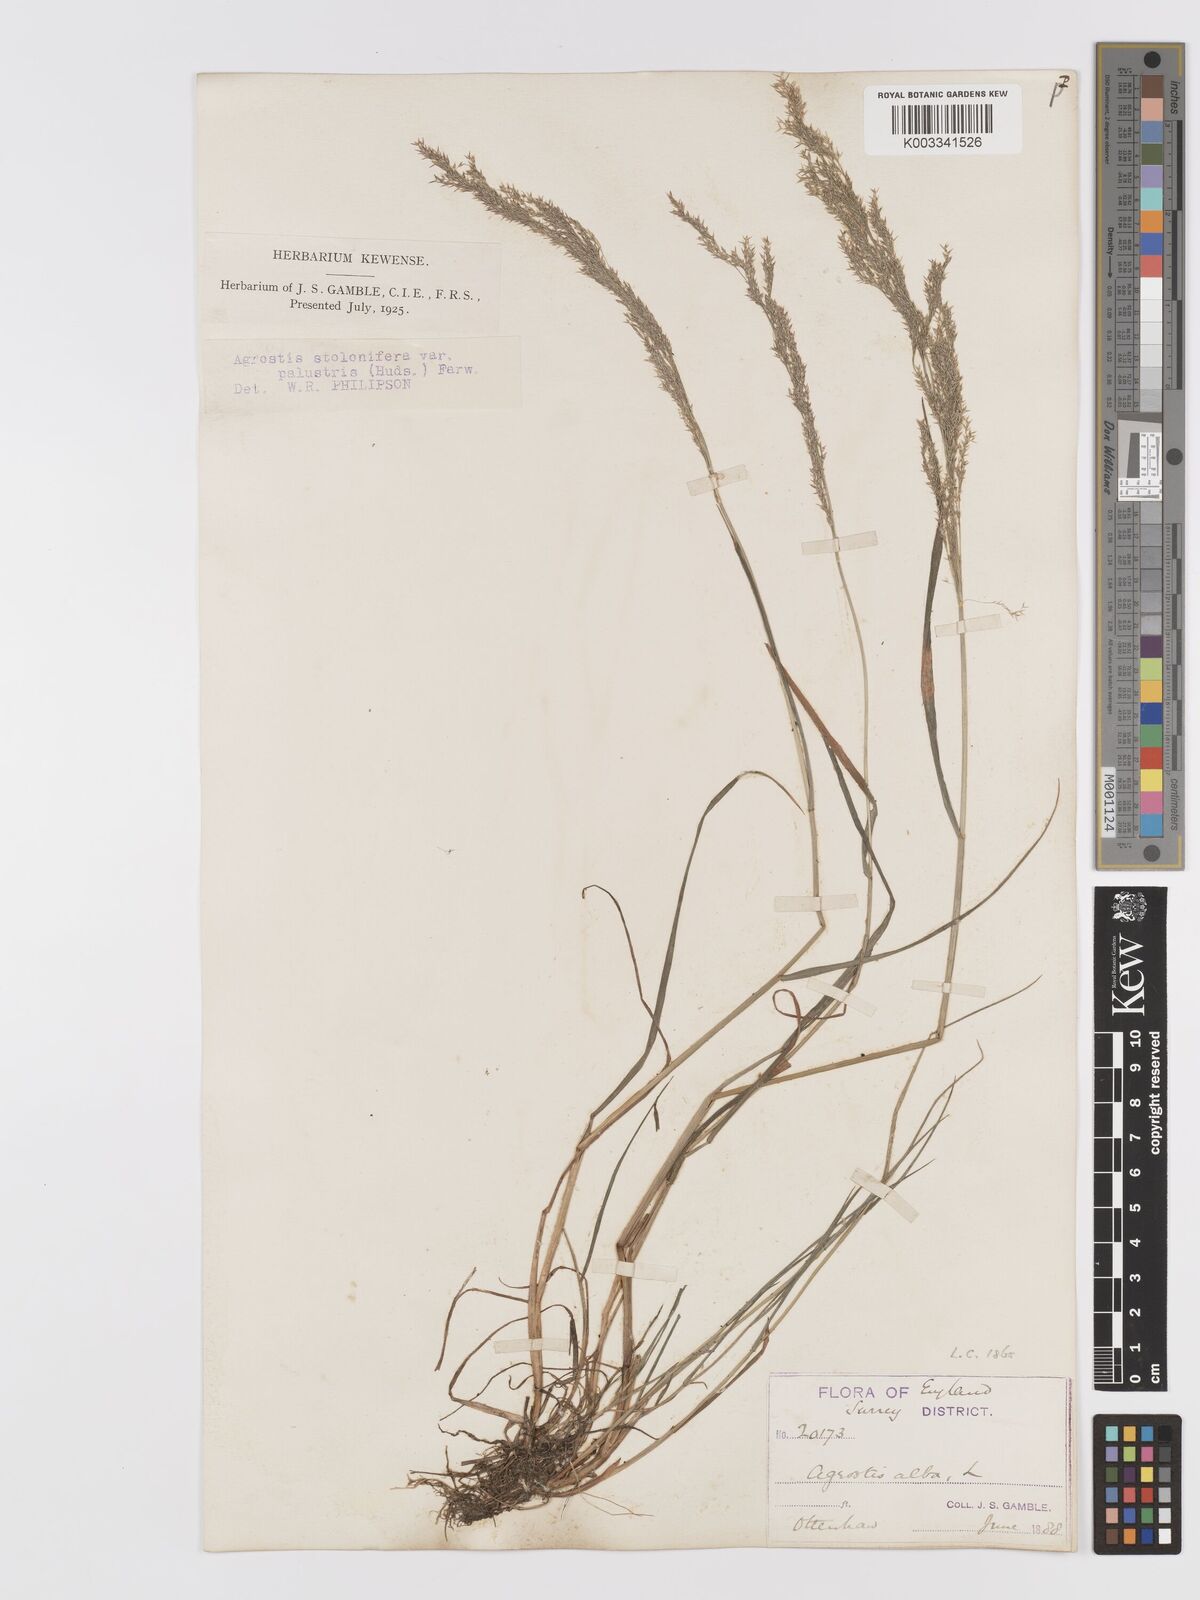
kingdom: Plantae
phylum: Tracheophyta
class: Liliopsida
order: Poales
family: Poaceae
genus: Agrostis
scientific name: Agrostis stolonifera
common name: Creeping bentgrass
